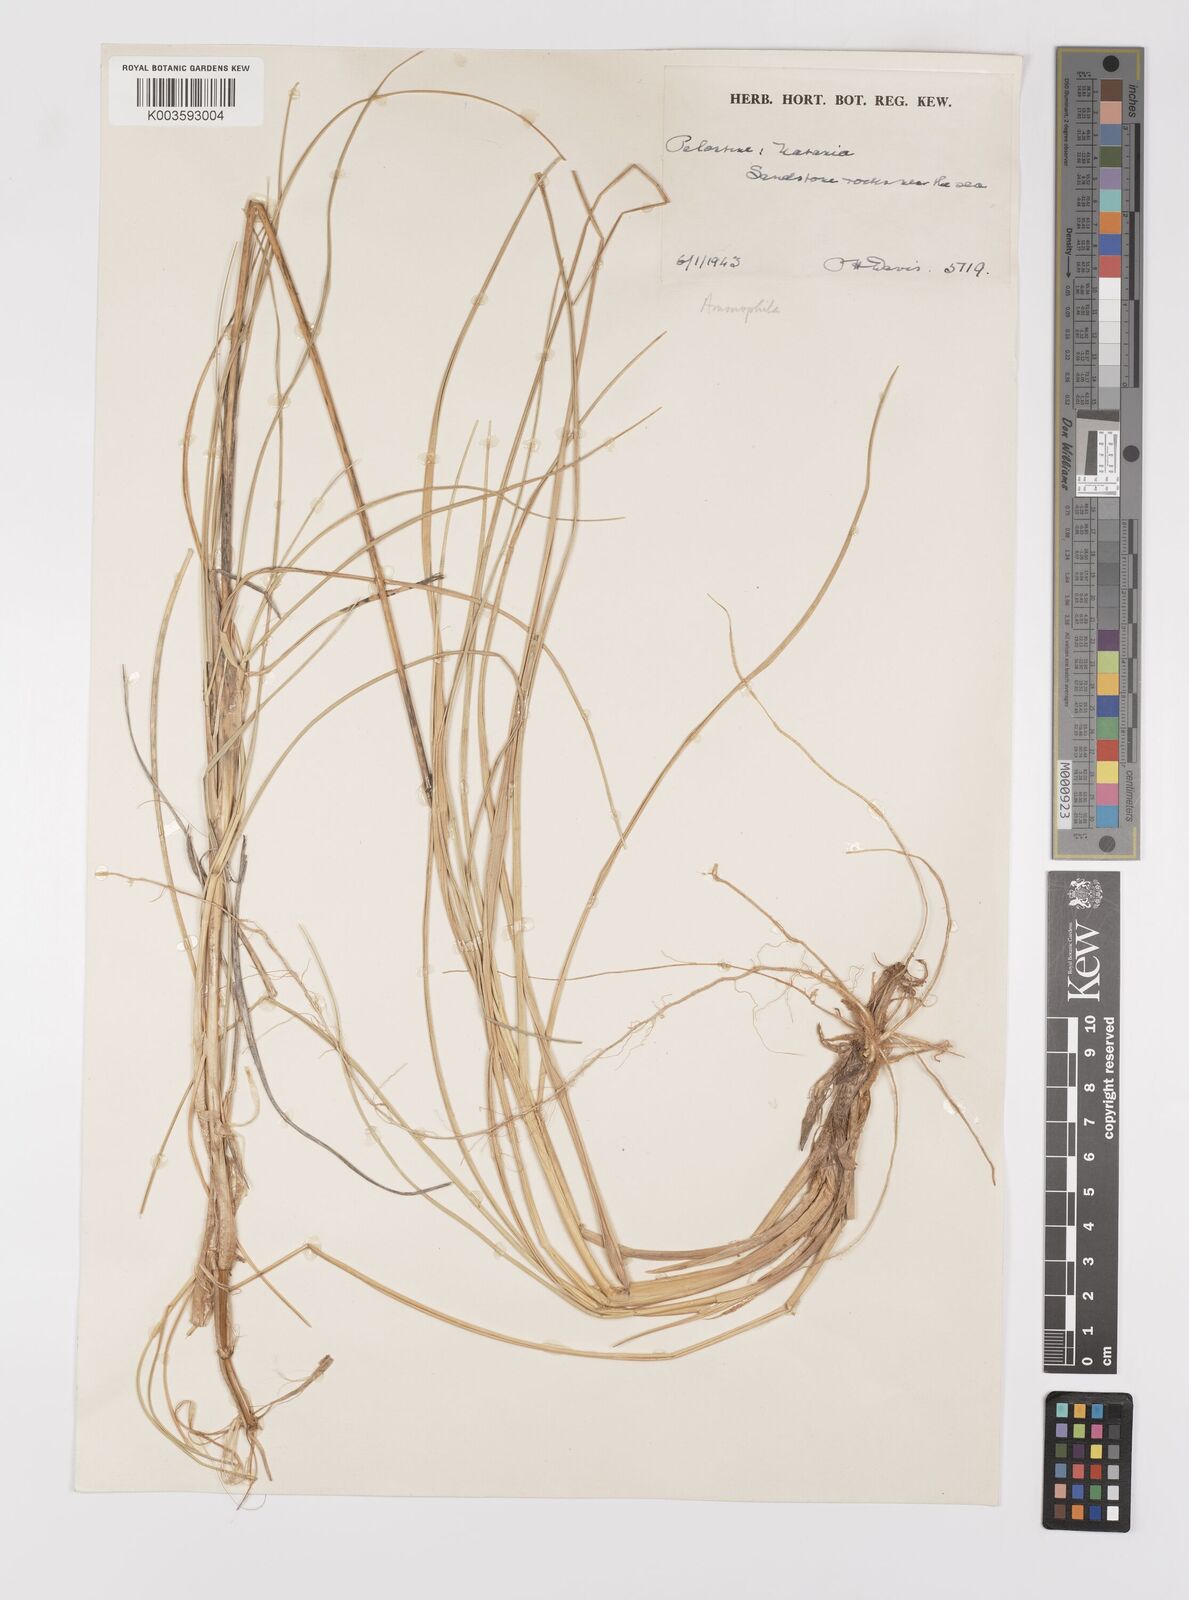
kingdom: Plantae
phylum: Tracheophyta
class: Liliopsida
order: Poales
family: Poaceae
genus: Calamagrostis
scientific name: Calamagrostis arenaria
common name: European beachgrass
